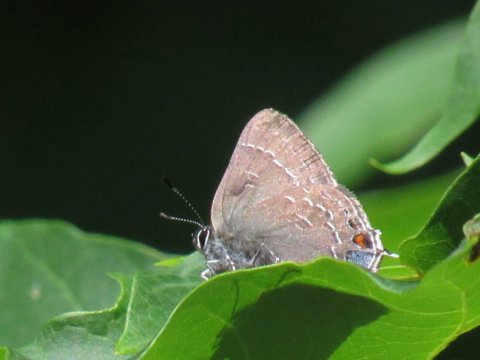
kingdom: Animalia
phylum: Arthropoda
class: Insecta
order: Lepidoptera
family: Lycaenidae
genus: Satyrium
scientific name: Satyrium calanus
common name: Banded Hairstreak
